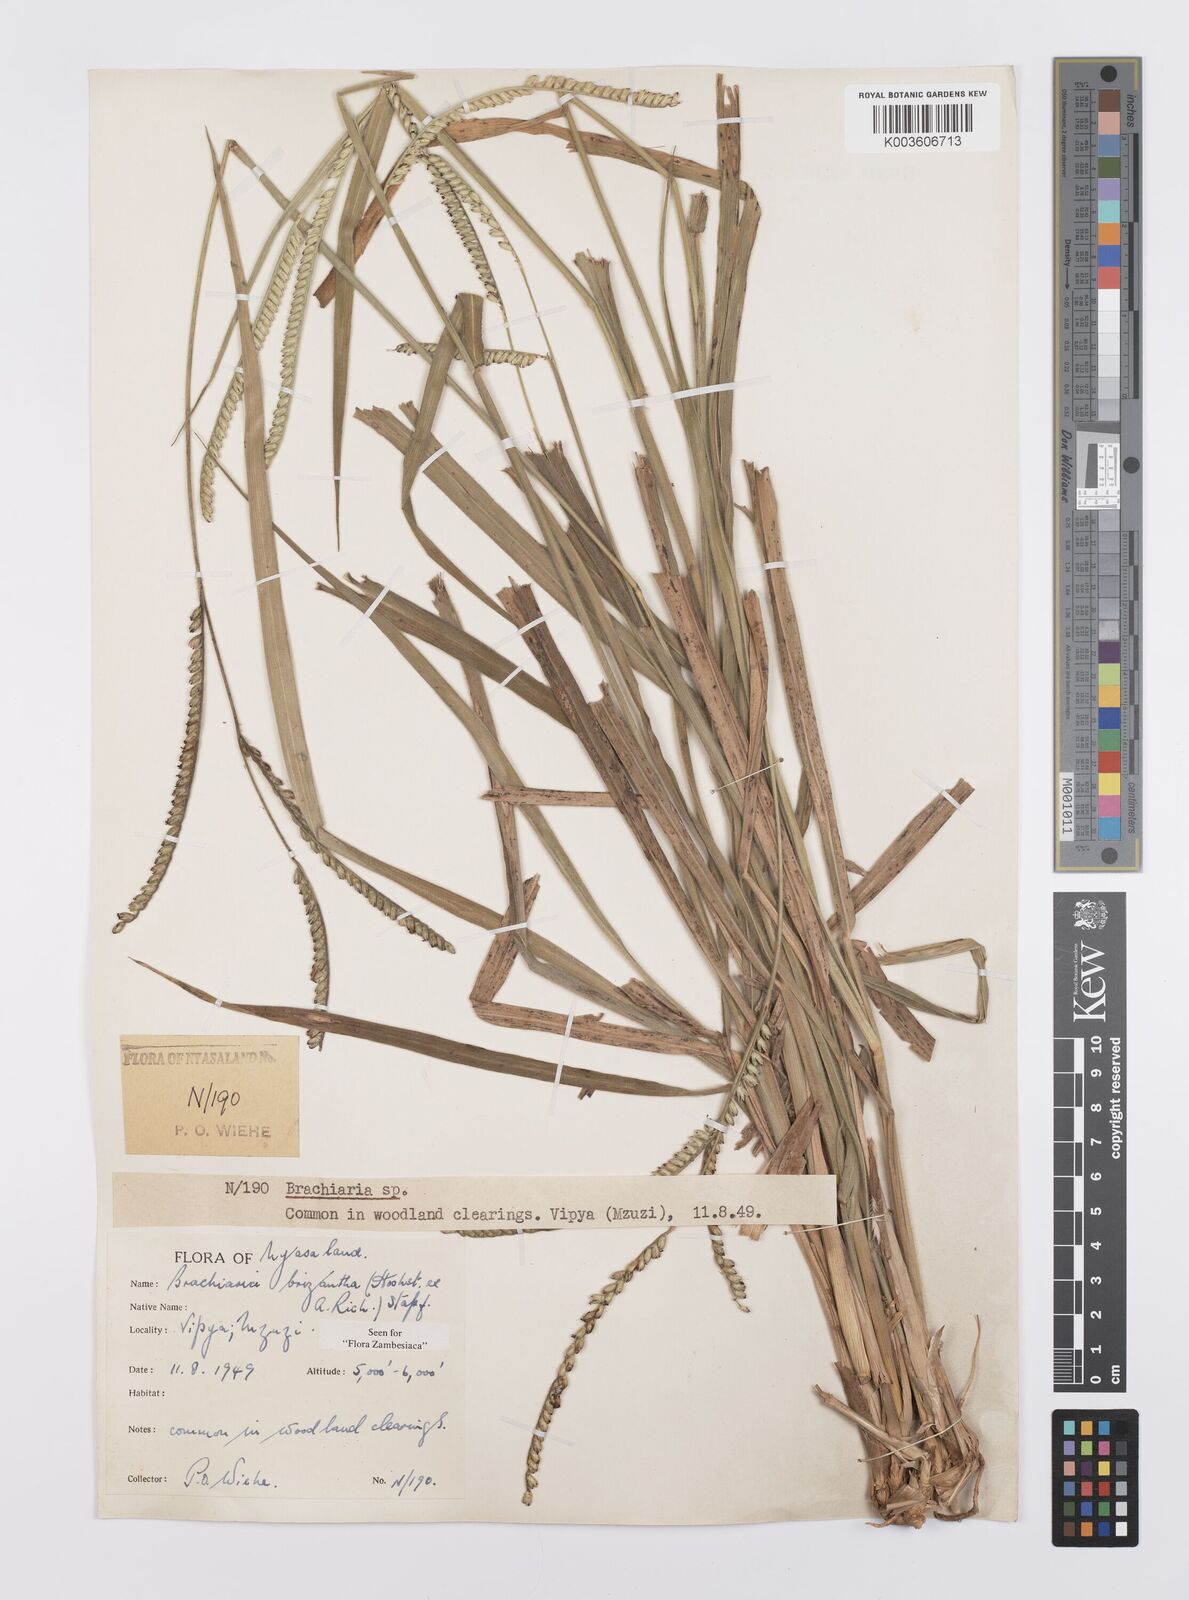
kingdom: Plantae
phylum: Tracheophyta
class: Liliopsida
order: Poales
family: Poaceae
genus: Urochloa
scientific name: Urochloa brizantha
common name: Palisade signalgrass
